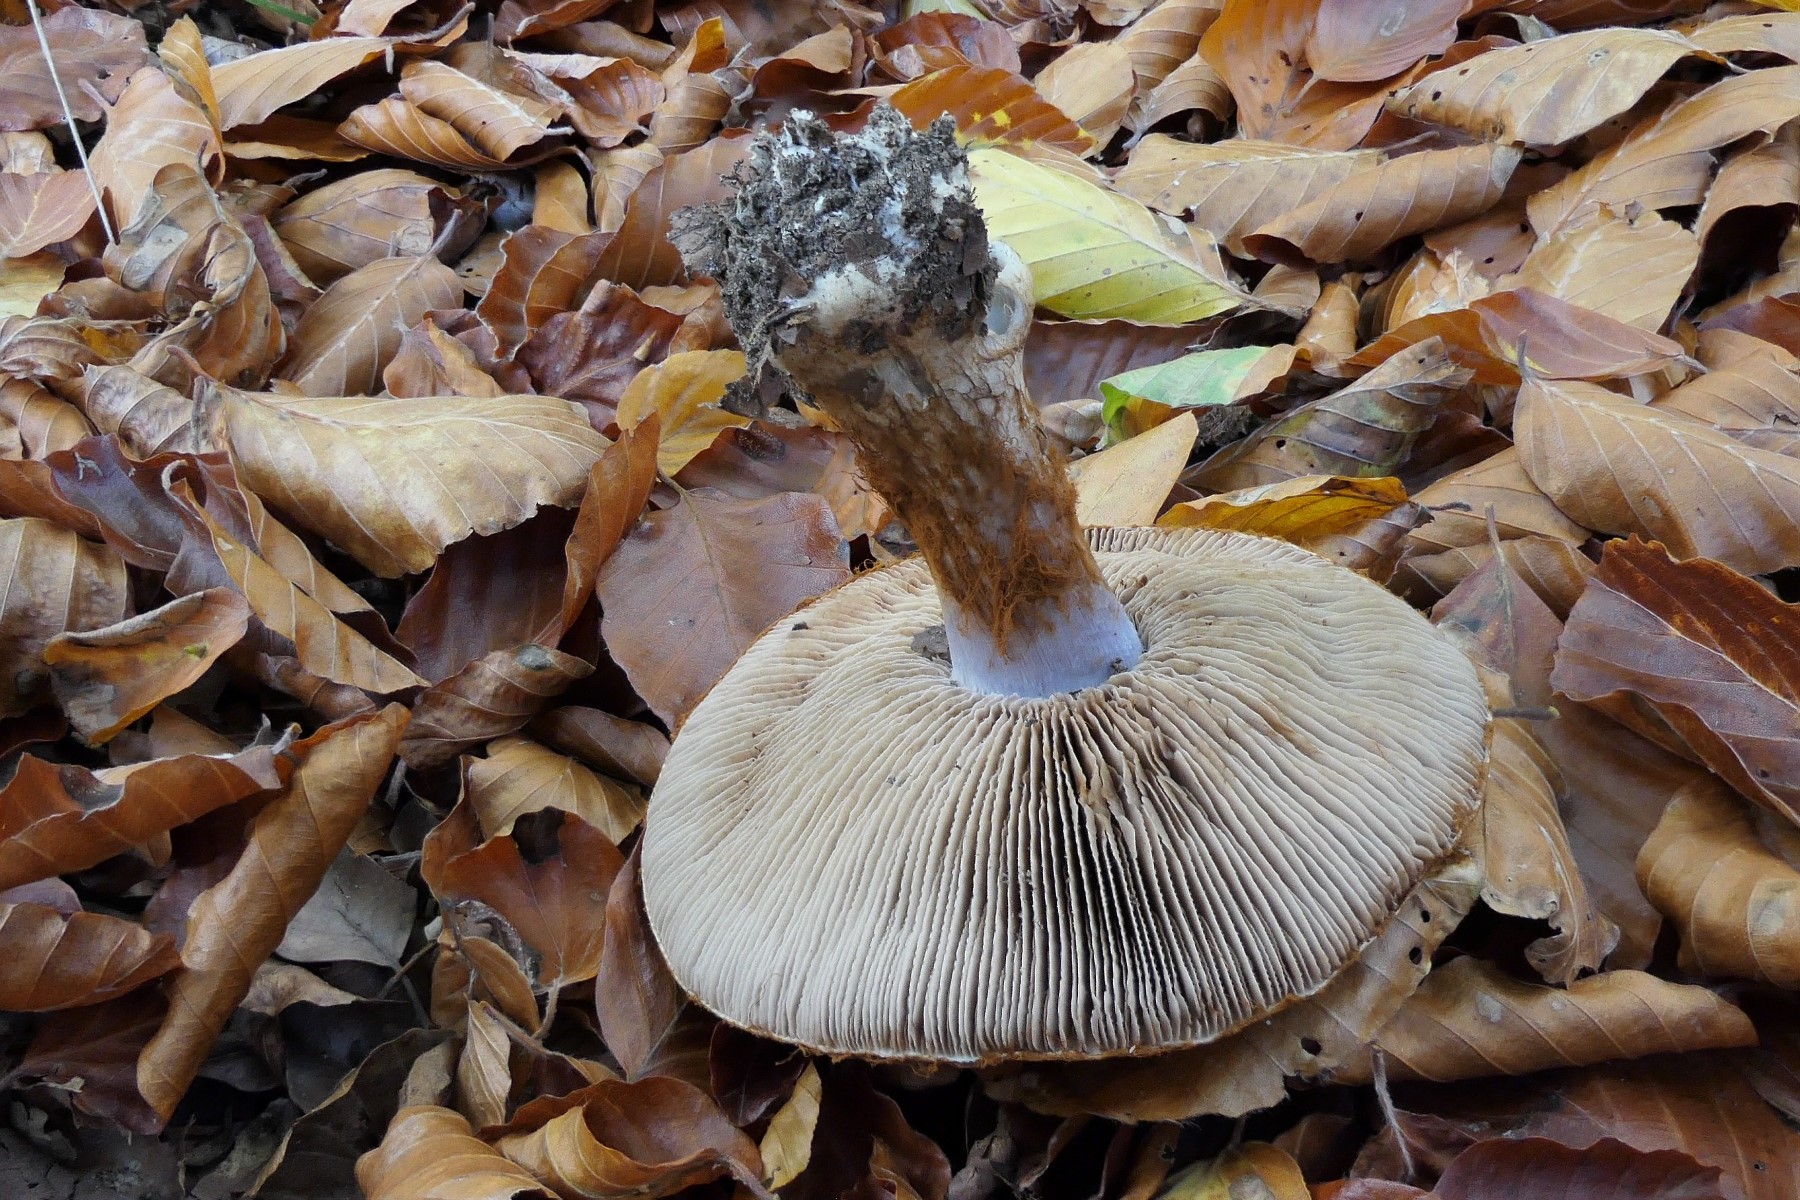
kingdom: Fungi
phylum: Basidiomycota
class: Agaricomycetes
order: Agaricales
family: Cortinariaceae
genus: Cortinarius
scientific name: Cortinarius anserinus
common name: bøge-slørhat
